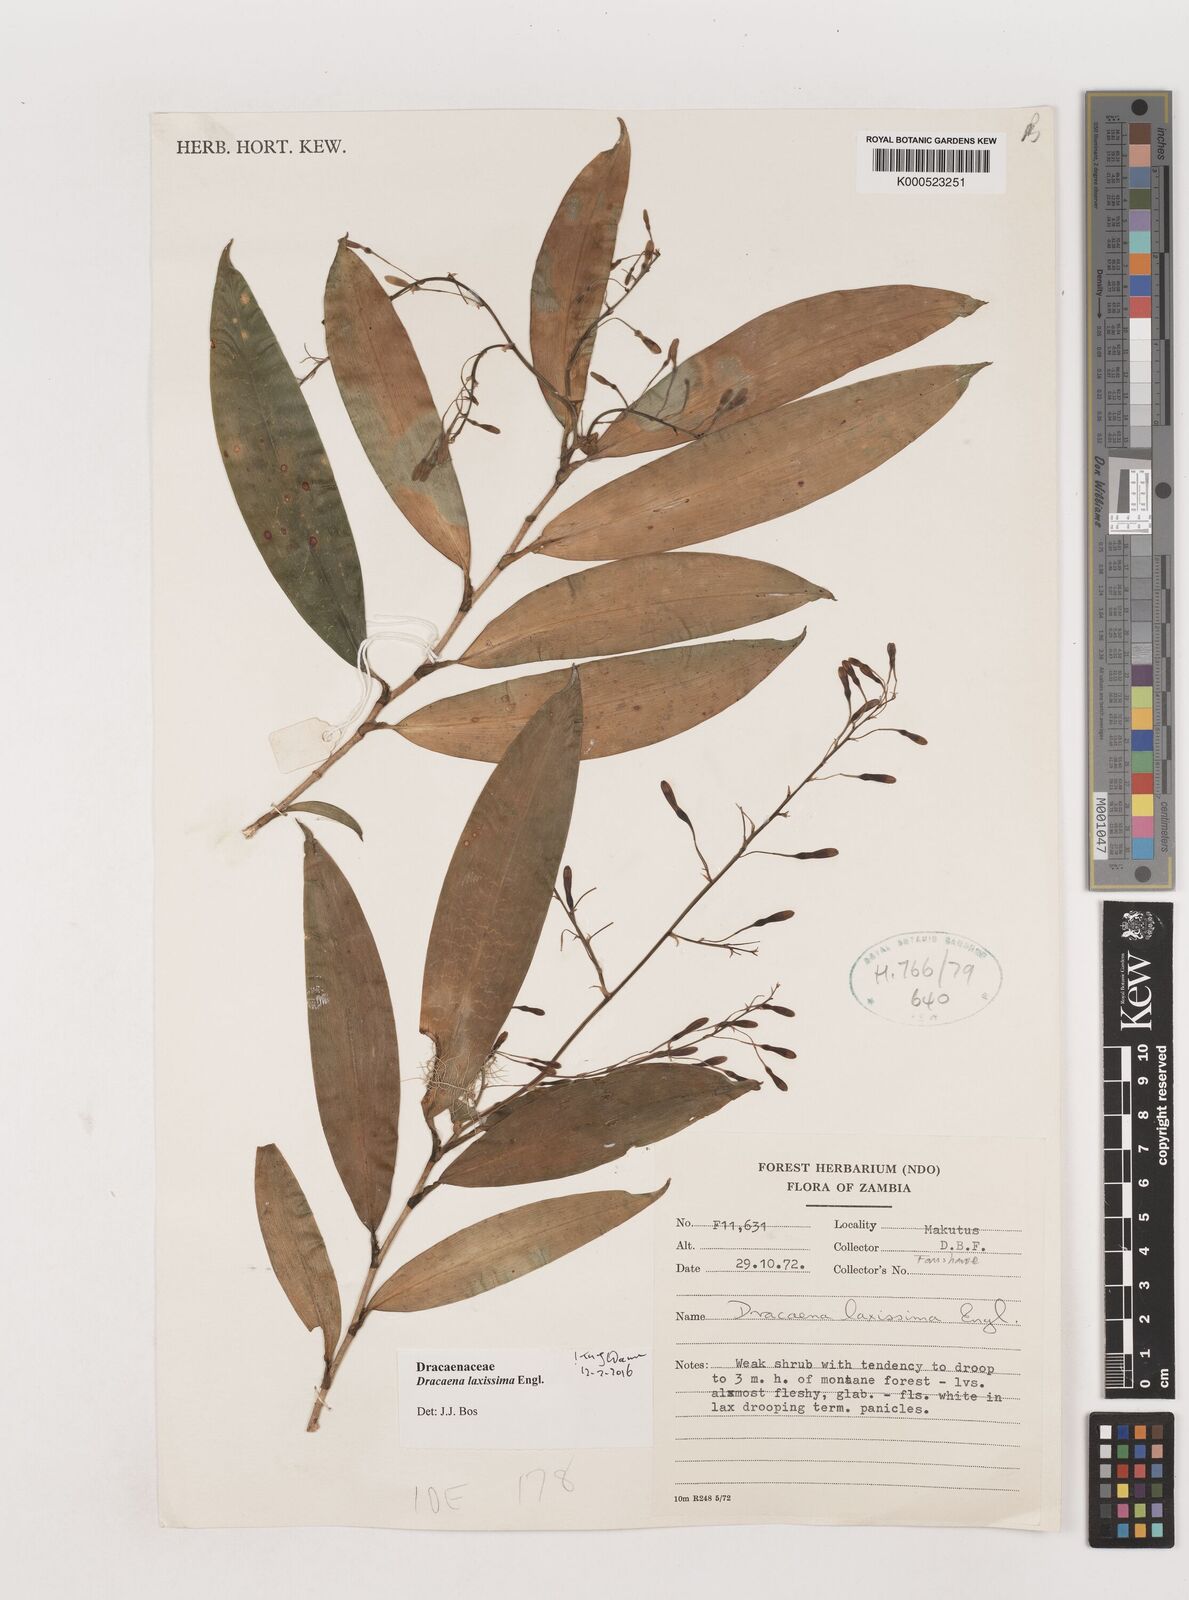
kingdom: Plantae
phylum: Tracheophyta
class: Liliopsida
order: Asparagales
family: Asparagaceae
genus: Dracaena
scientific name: Dracaena laxissima
